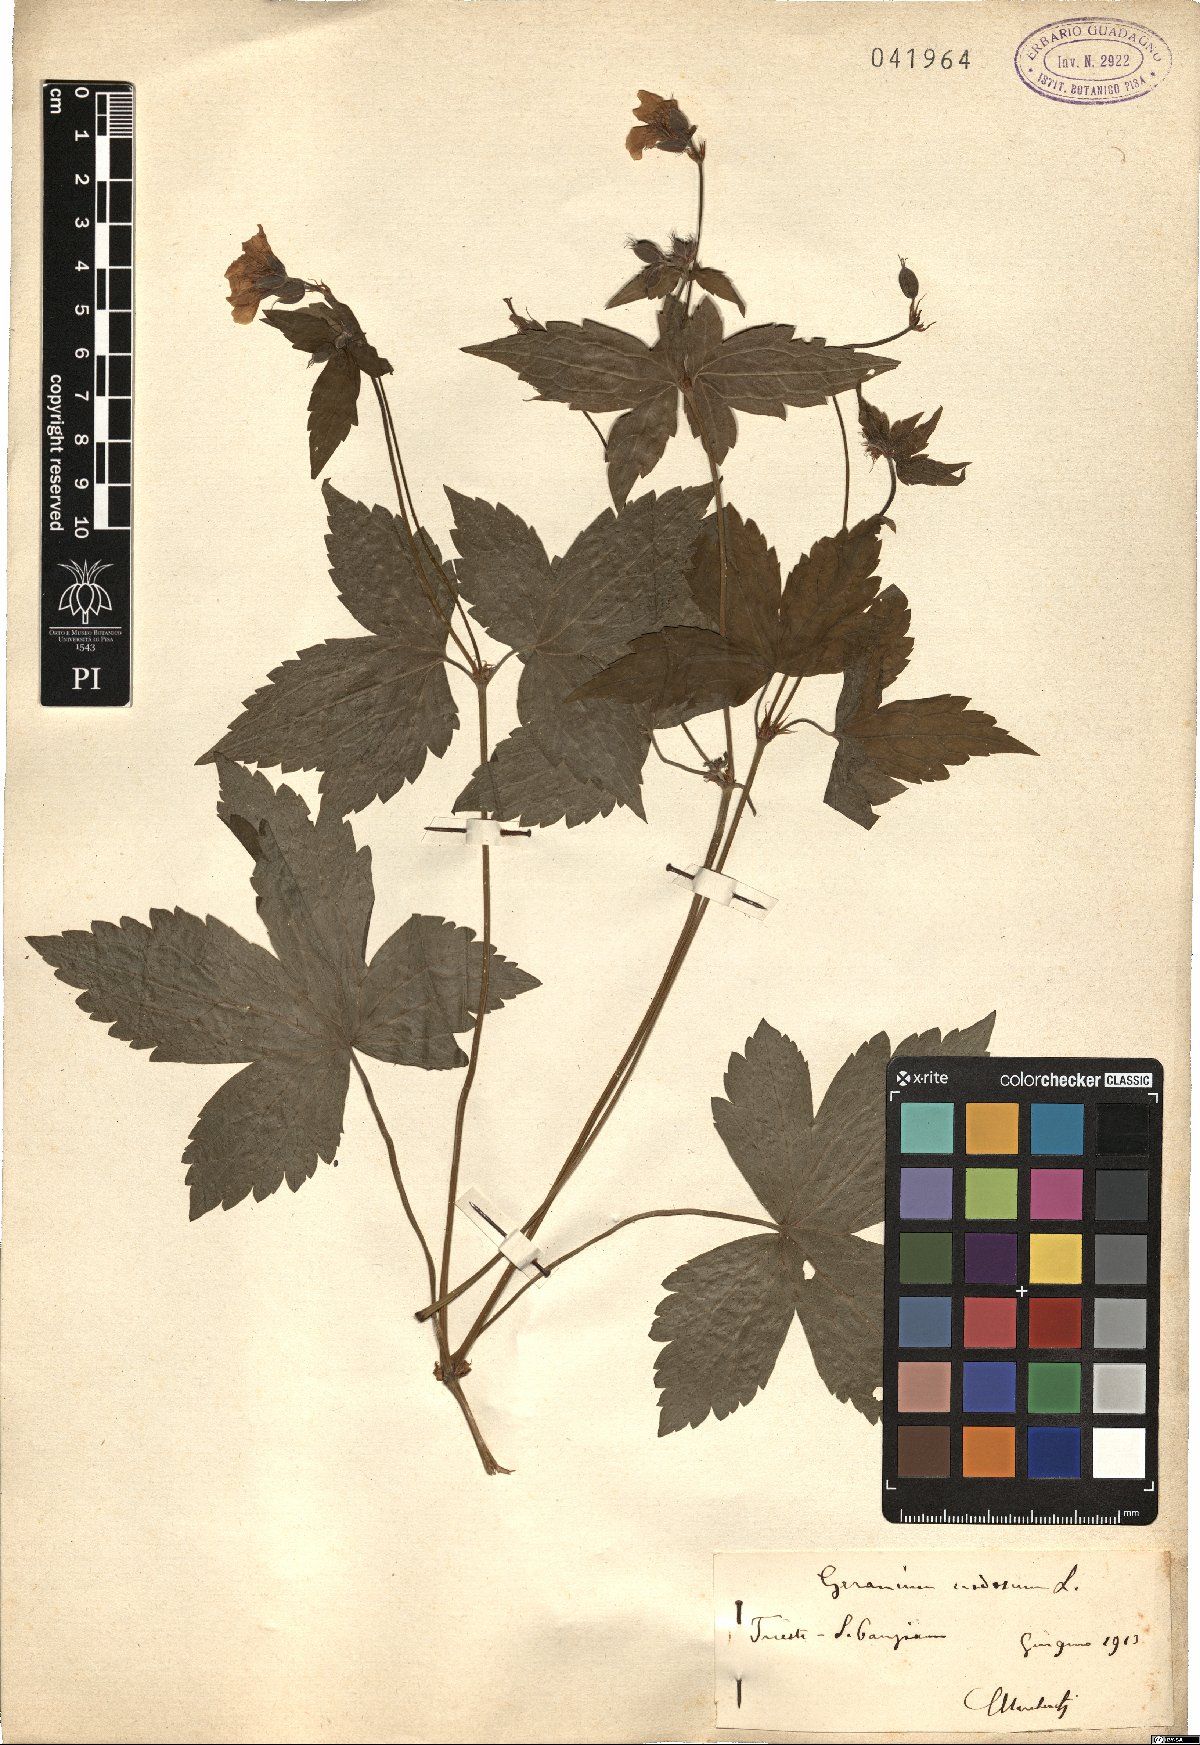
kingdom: Plantae
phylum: Tracheophyta
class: Magnoliopsida
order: Geraniales
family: Geraniaceae
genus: Geranium
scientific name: Geranium nodosum
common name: Knotted crane's-bill
